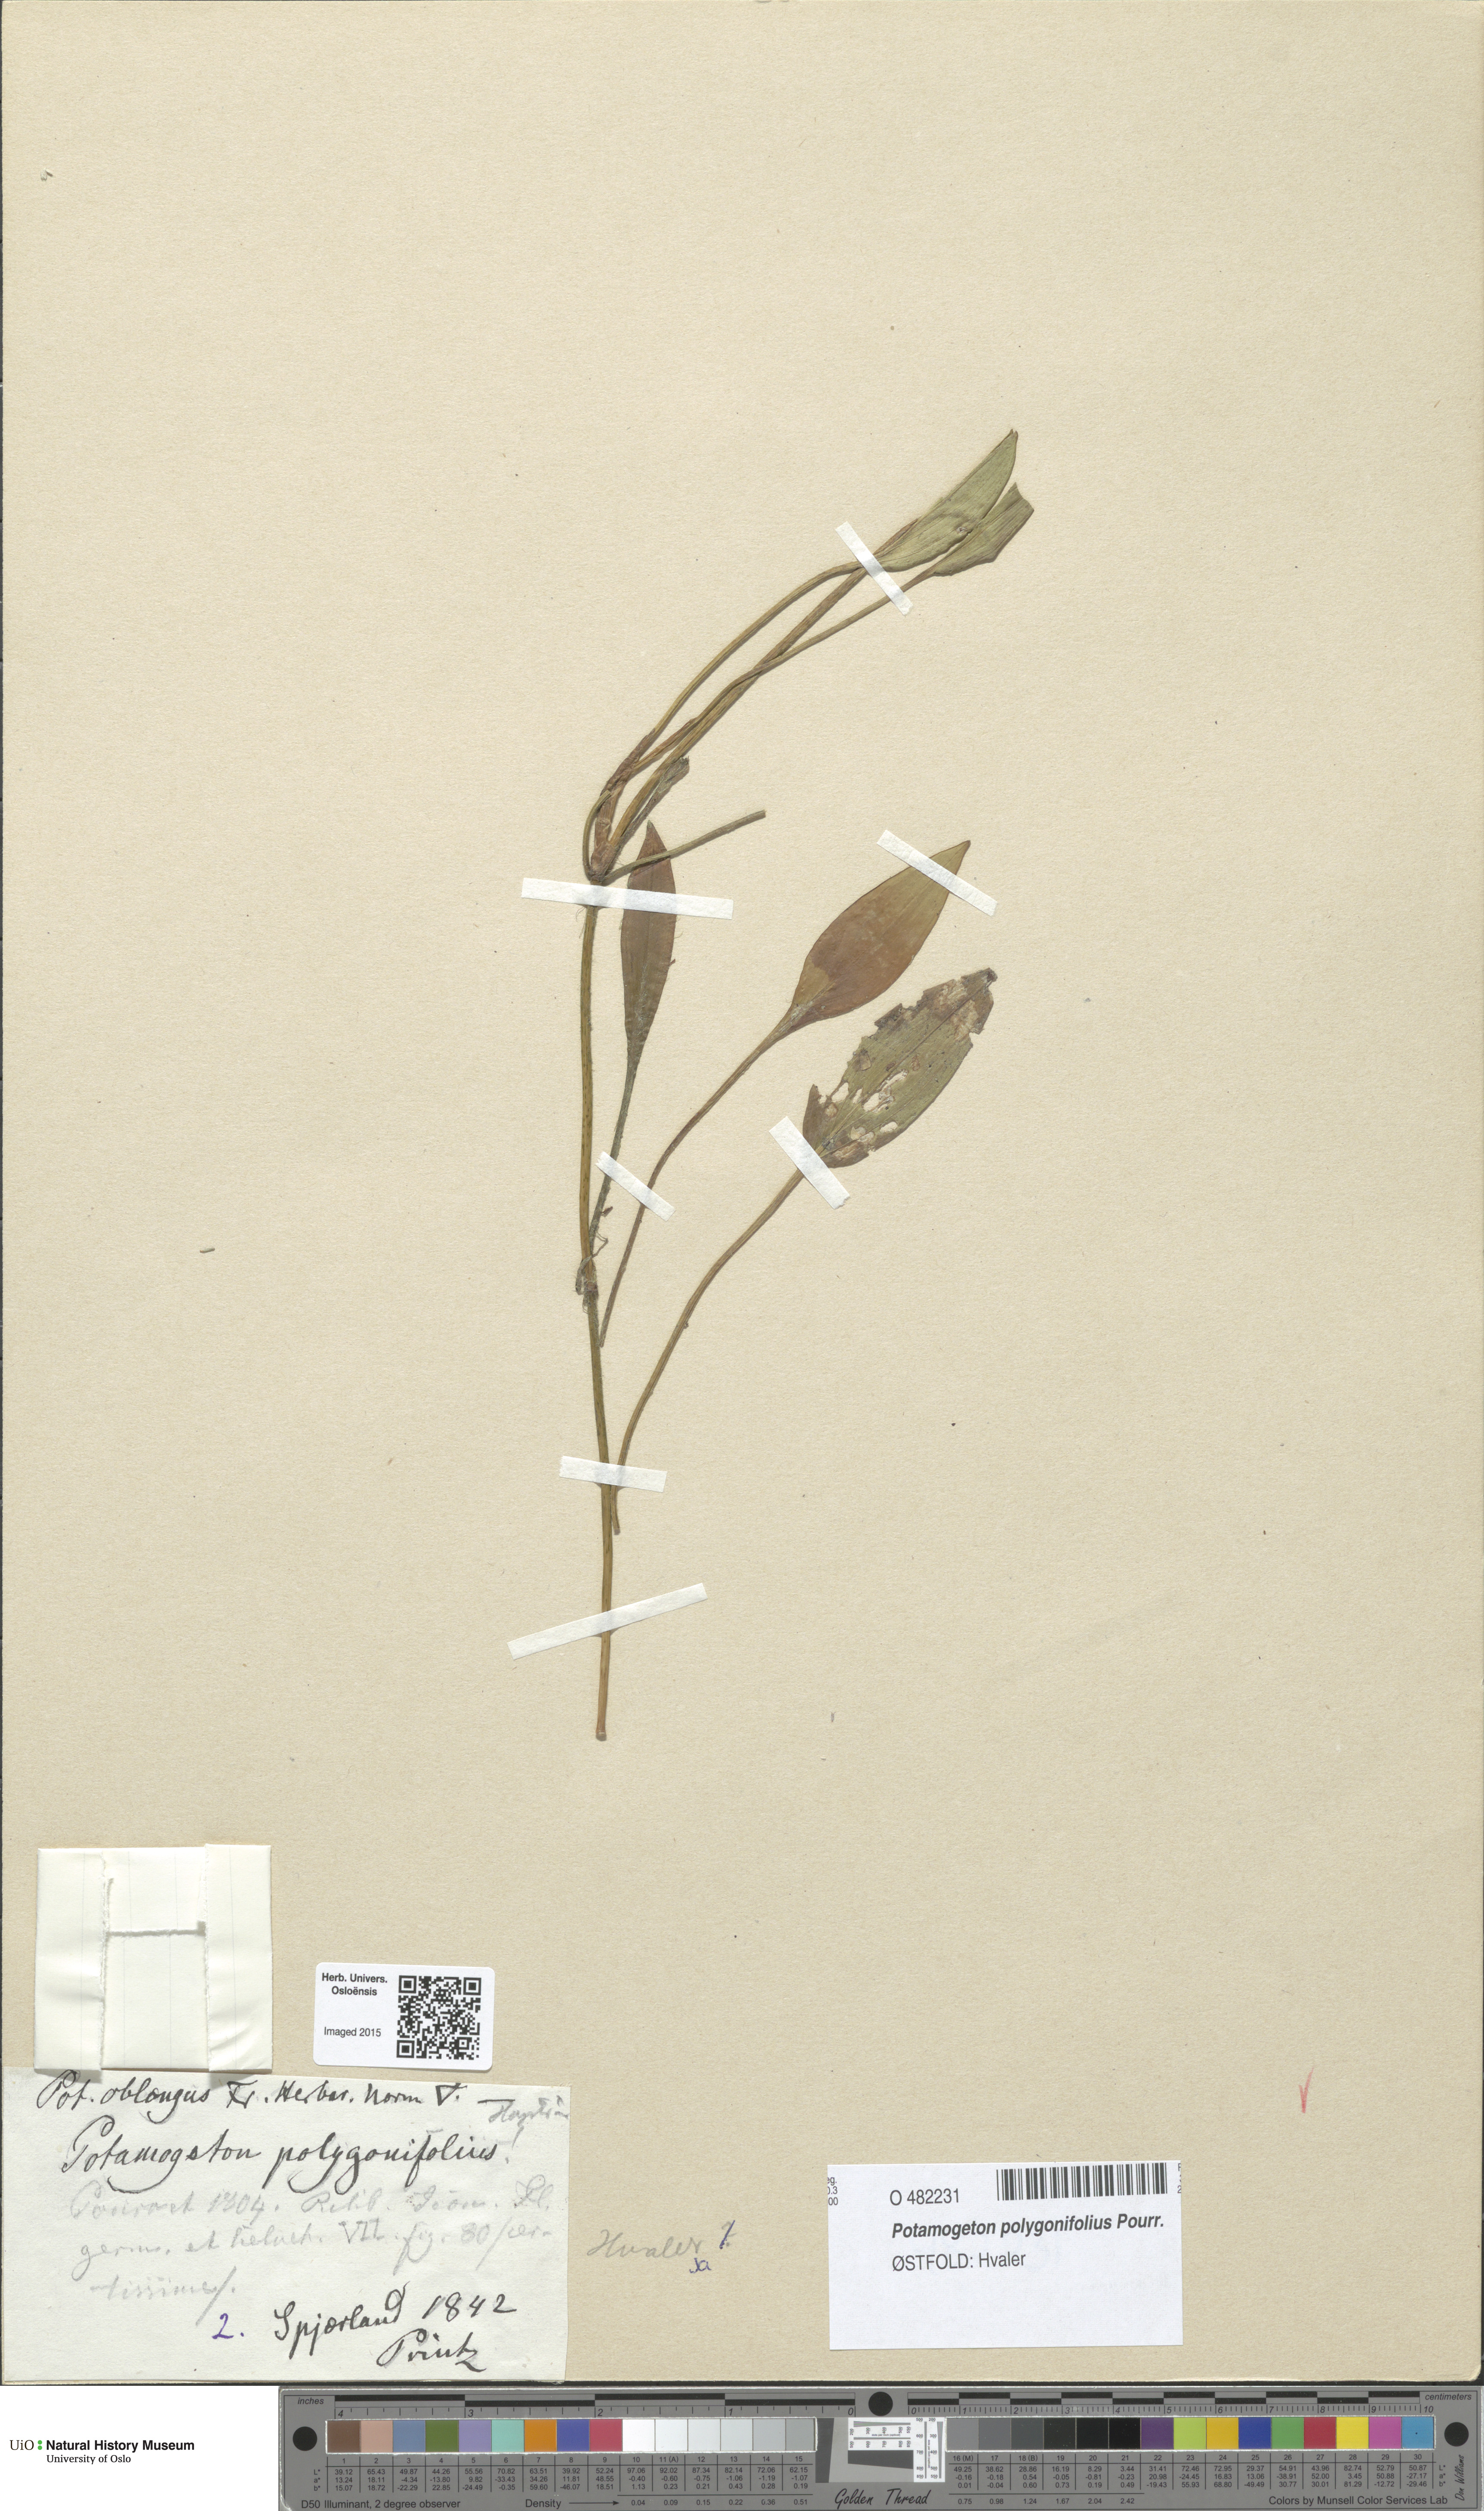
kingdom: Plantae
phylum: Tracheophyta
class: Liliopsida
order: Alismatales
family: Potamogetonaceae
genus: Potamogeton
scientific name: Potamogeton polygonifolius
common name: Bog pondweed
